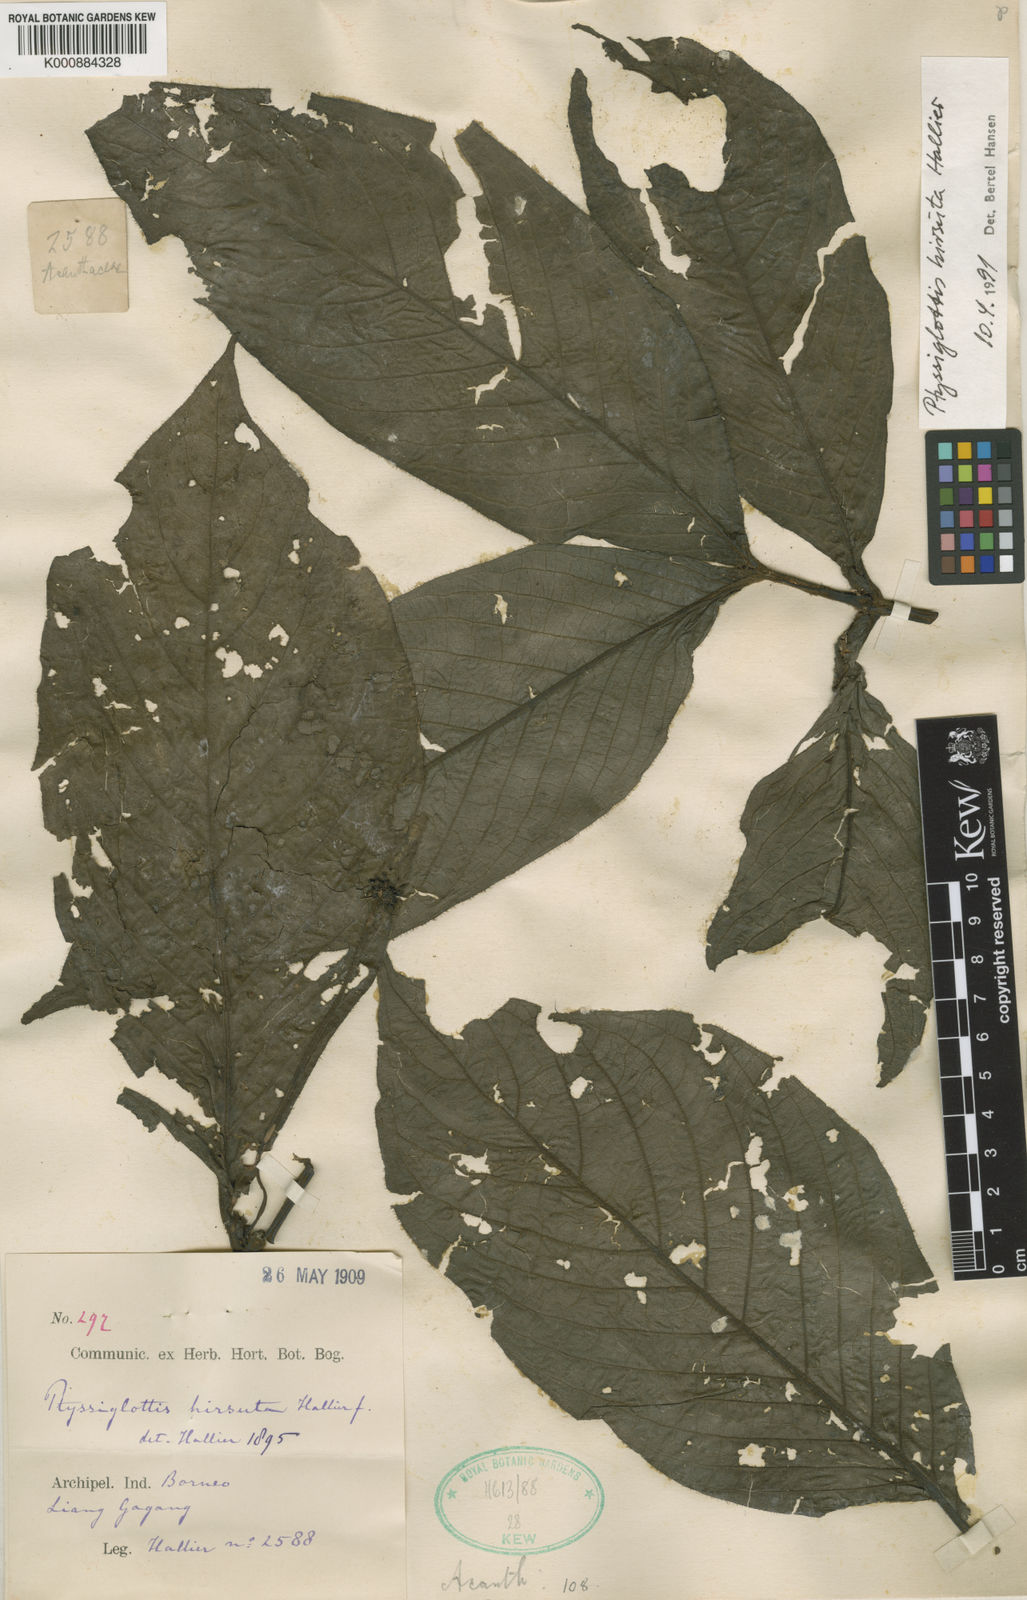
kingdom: Plantae
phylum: Tracheophyta
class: Magnoliopsida
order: Lamiales
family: Acanthaceae
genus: Ptyssiglottis
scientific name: Ptyssiglottis hirsuta
